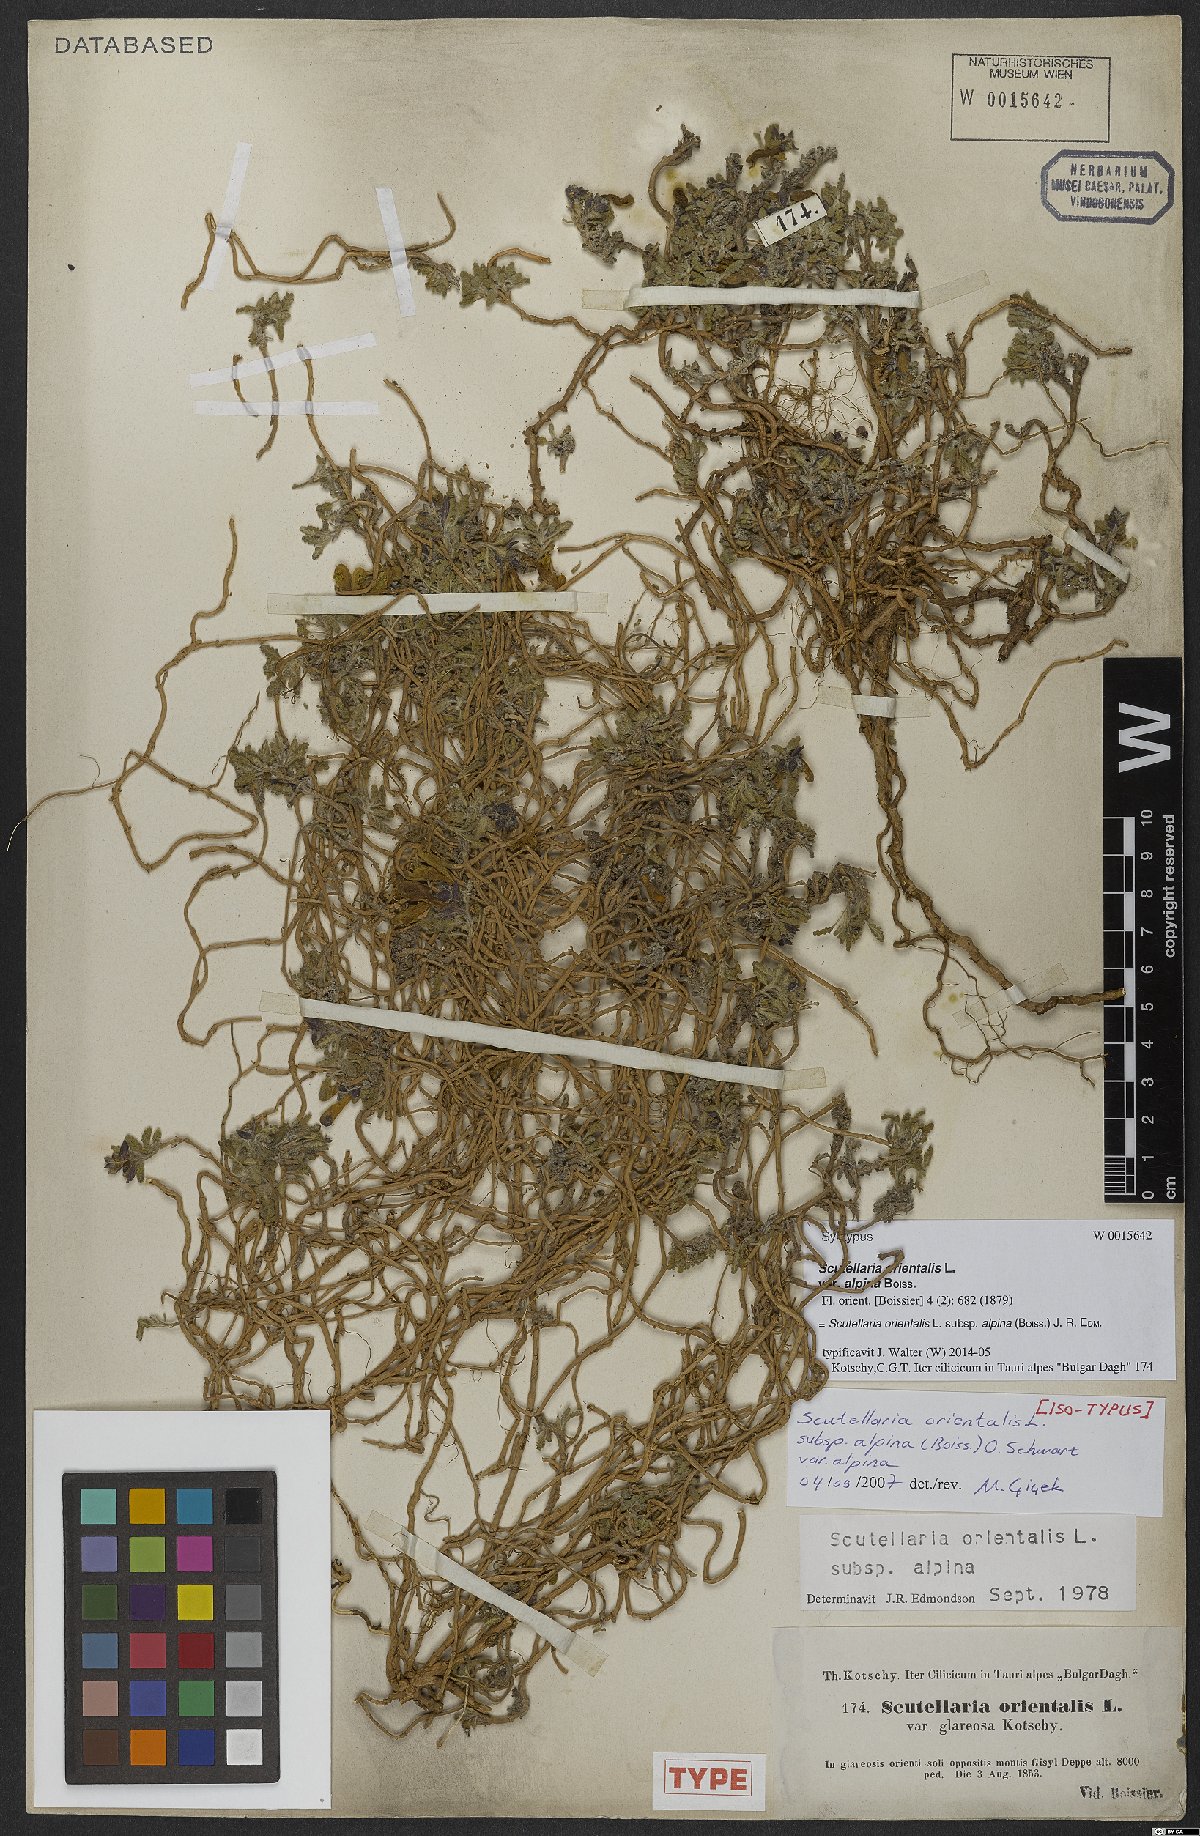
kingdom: Plantae
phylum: Tracheophyta
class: Magnoliopsida
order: Lamiales
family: Lamiaceae
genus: Scutellaria
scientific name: Scutellaria orientalis
